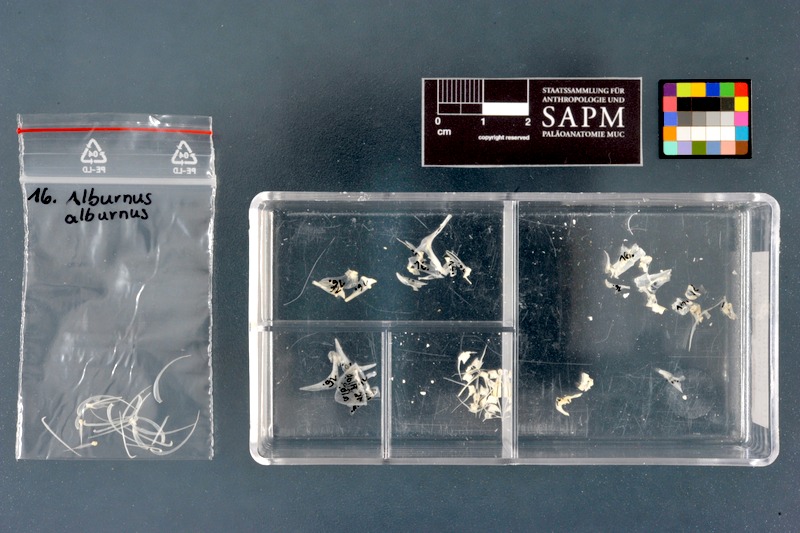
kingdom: Animalia
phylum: Chordata
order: Cypriniformes
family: Cyprinidae
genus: Alburnus
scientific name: Alburnus alburnus
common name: Bleak
